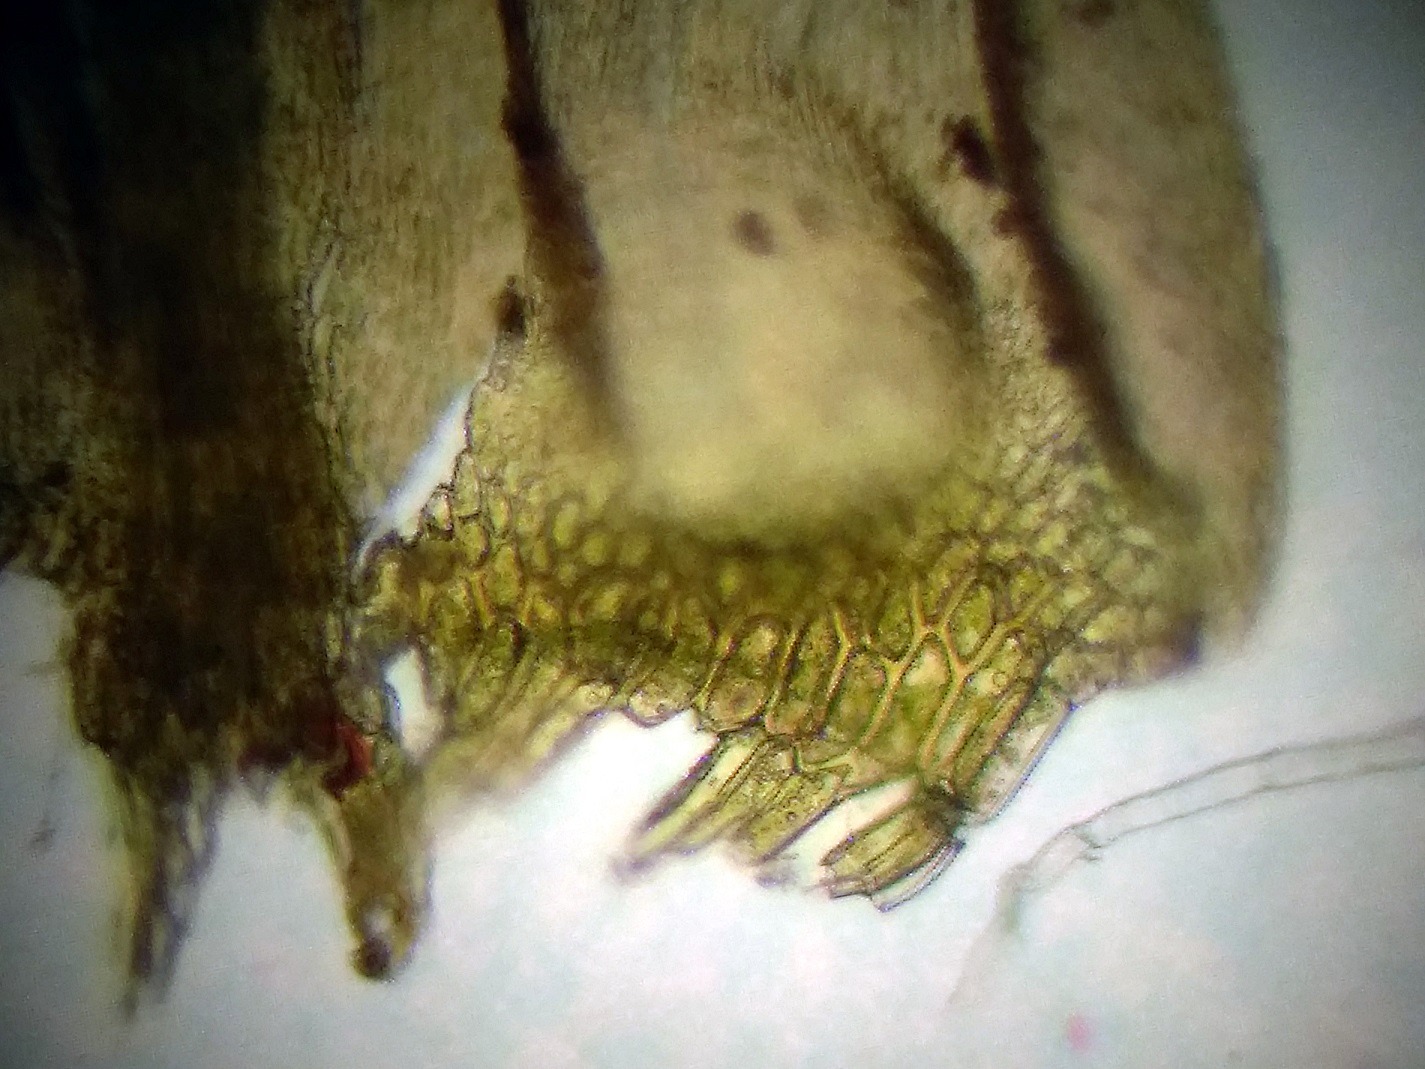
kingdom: Plantae
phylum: Bryophyta
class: Bryopsida
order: Hypnales
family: Amblystegiaceae
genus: Palustriella
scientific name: Palustriella commutata
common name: Bredbladet vældmos
